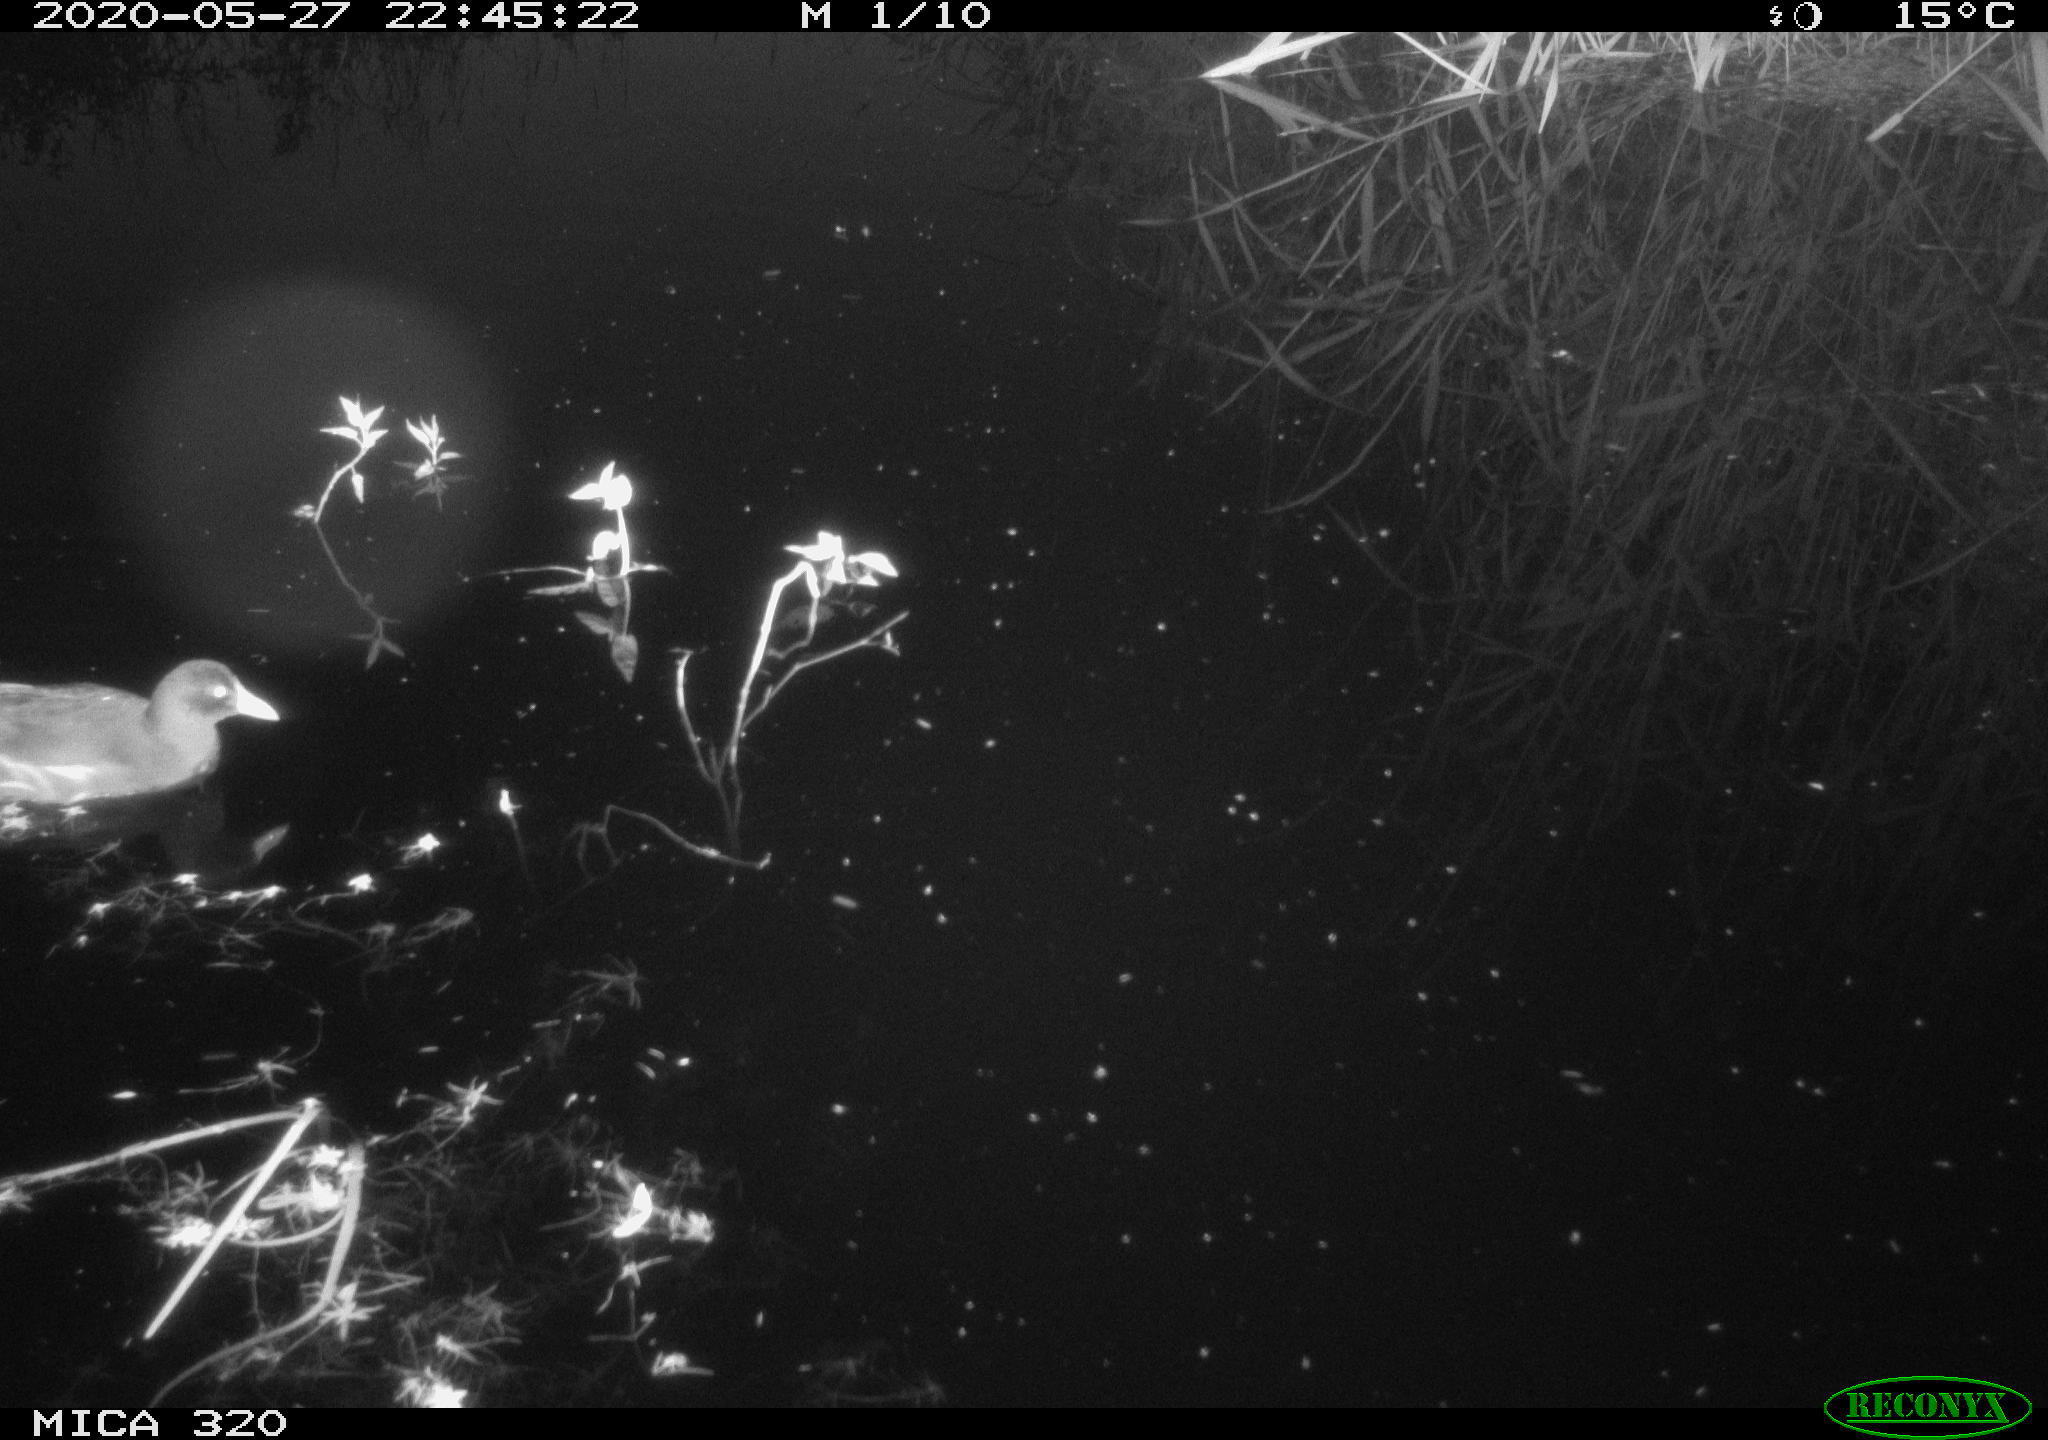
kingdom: Animalia
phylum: Chordata
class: Aves
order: Gruiformes
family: Rallidae
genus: Gallinula
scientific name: Gallinula chloropus
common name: Common moorhen
